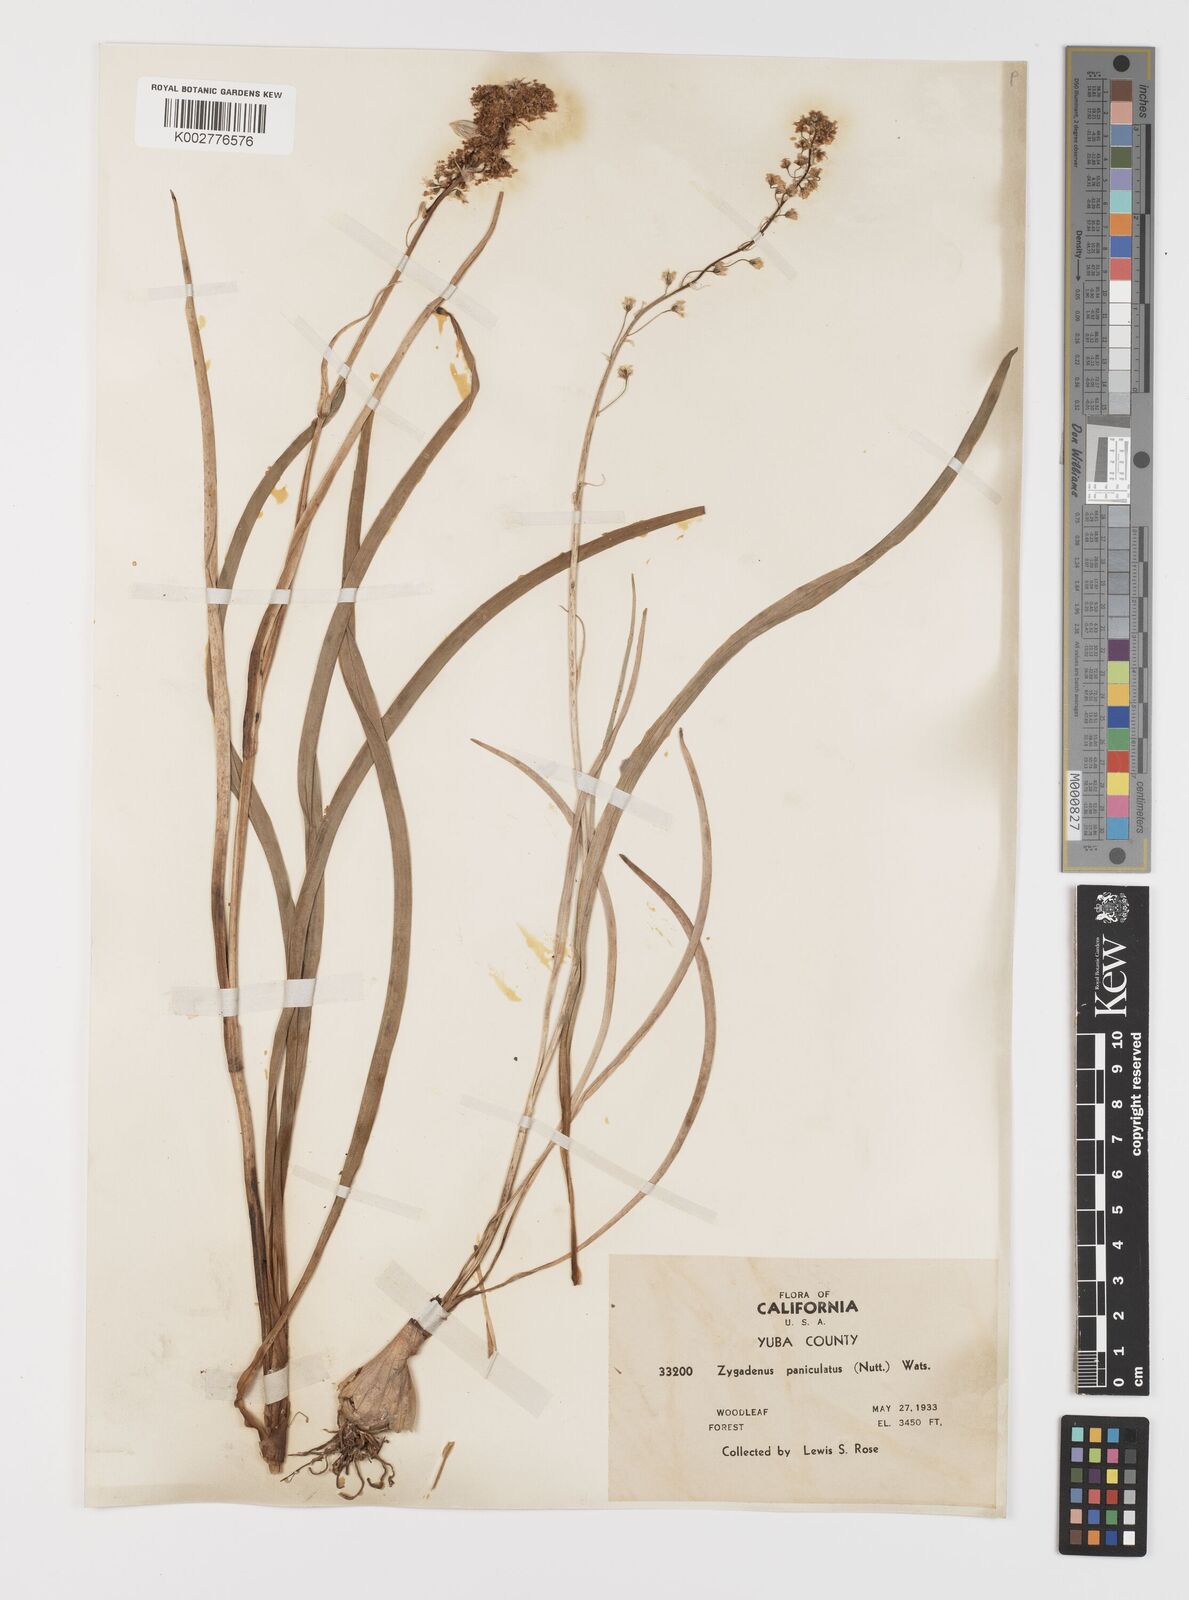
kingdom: Plantae
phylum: Tracheophyta
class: Liliopsida
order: Liliales
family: Melanthiaceae
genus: Toxicoscordion
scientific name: Toxicoscordion paniculatum
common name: Foothill death camas
